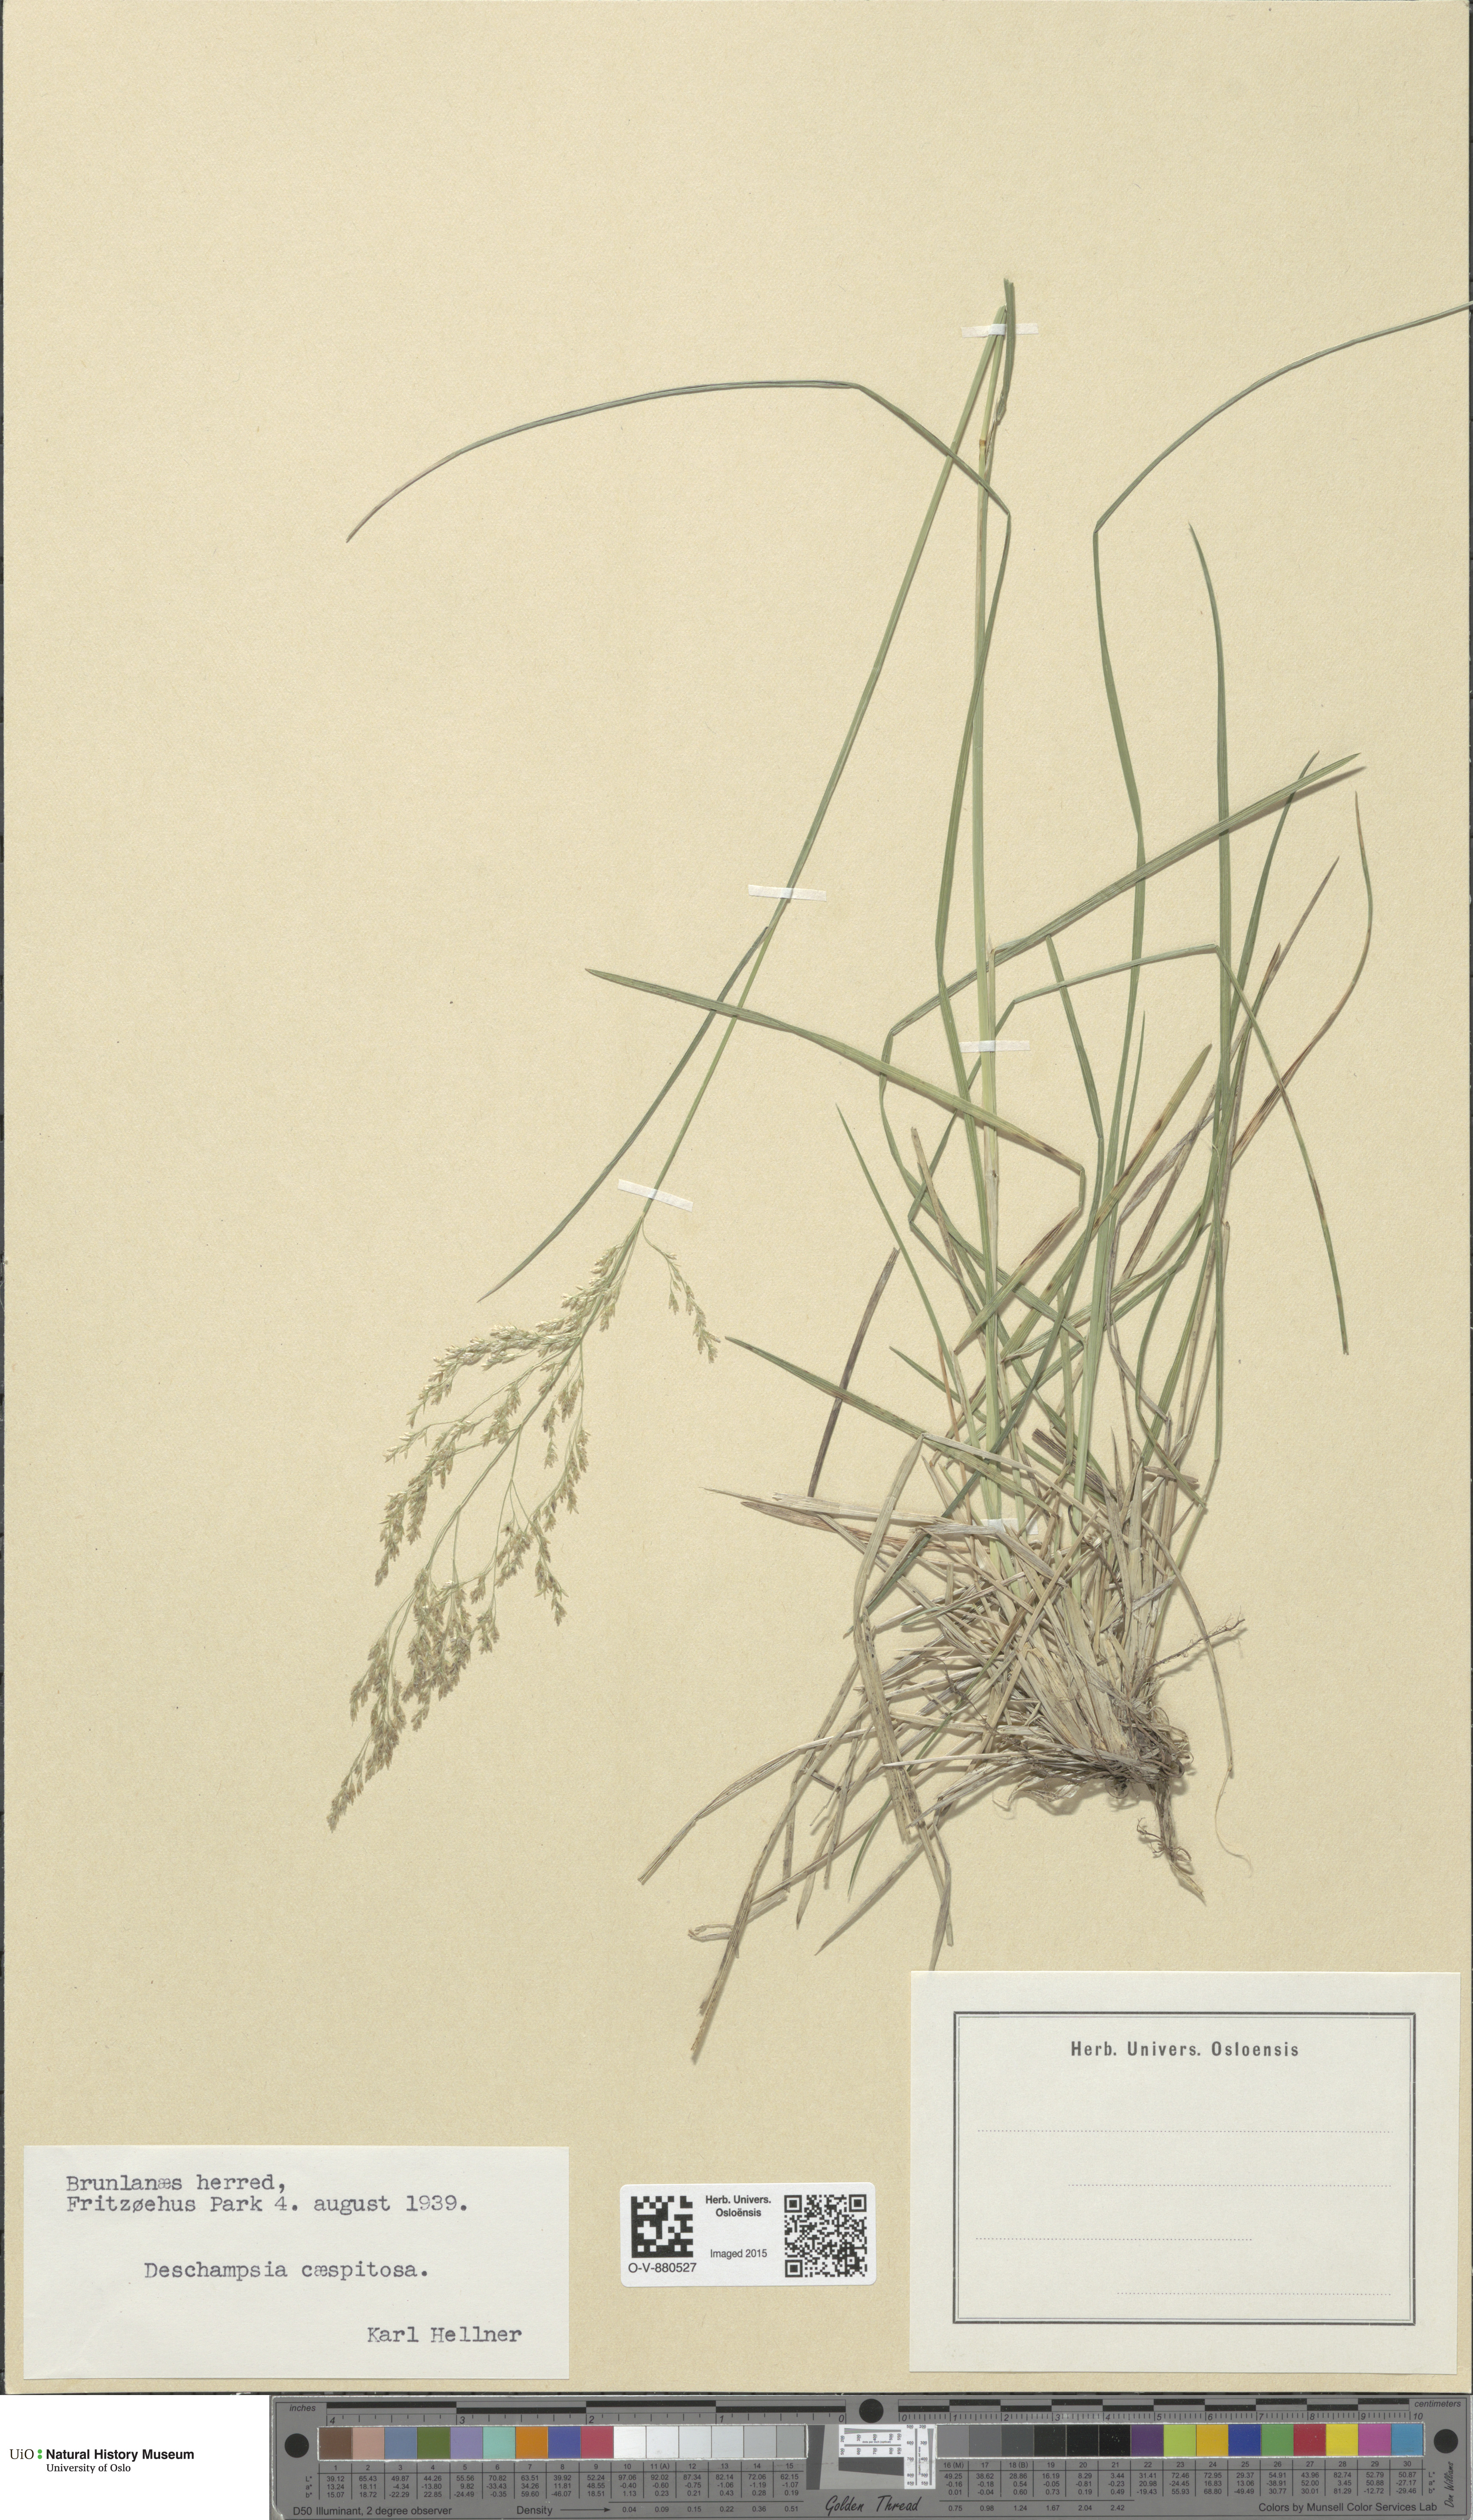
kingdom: Plantae
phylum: Tracheophyta
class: Liliopsida
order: Poales
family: Poaceae
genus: Deschampsia
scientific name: Deschampsia cespitosa
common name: Tufted hair-grass
